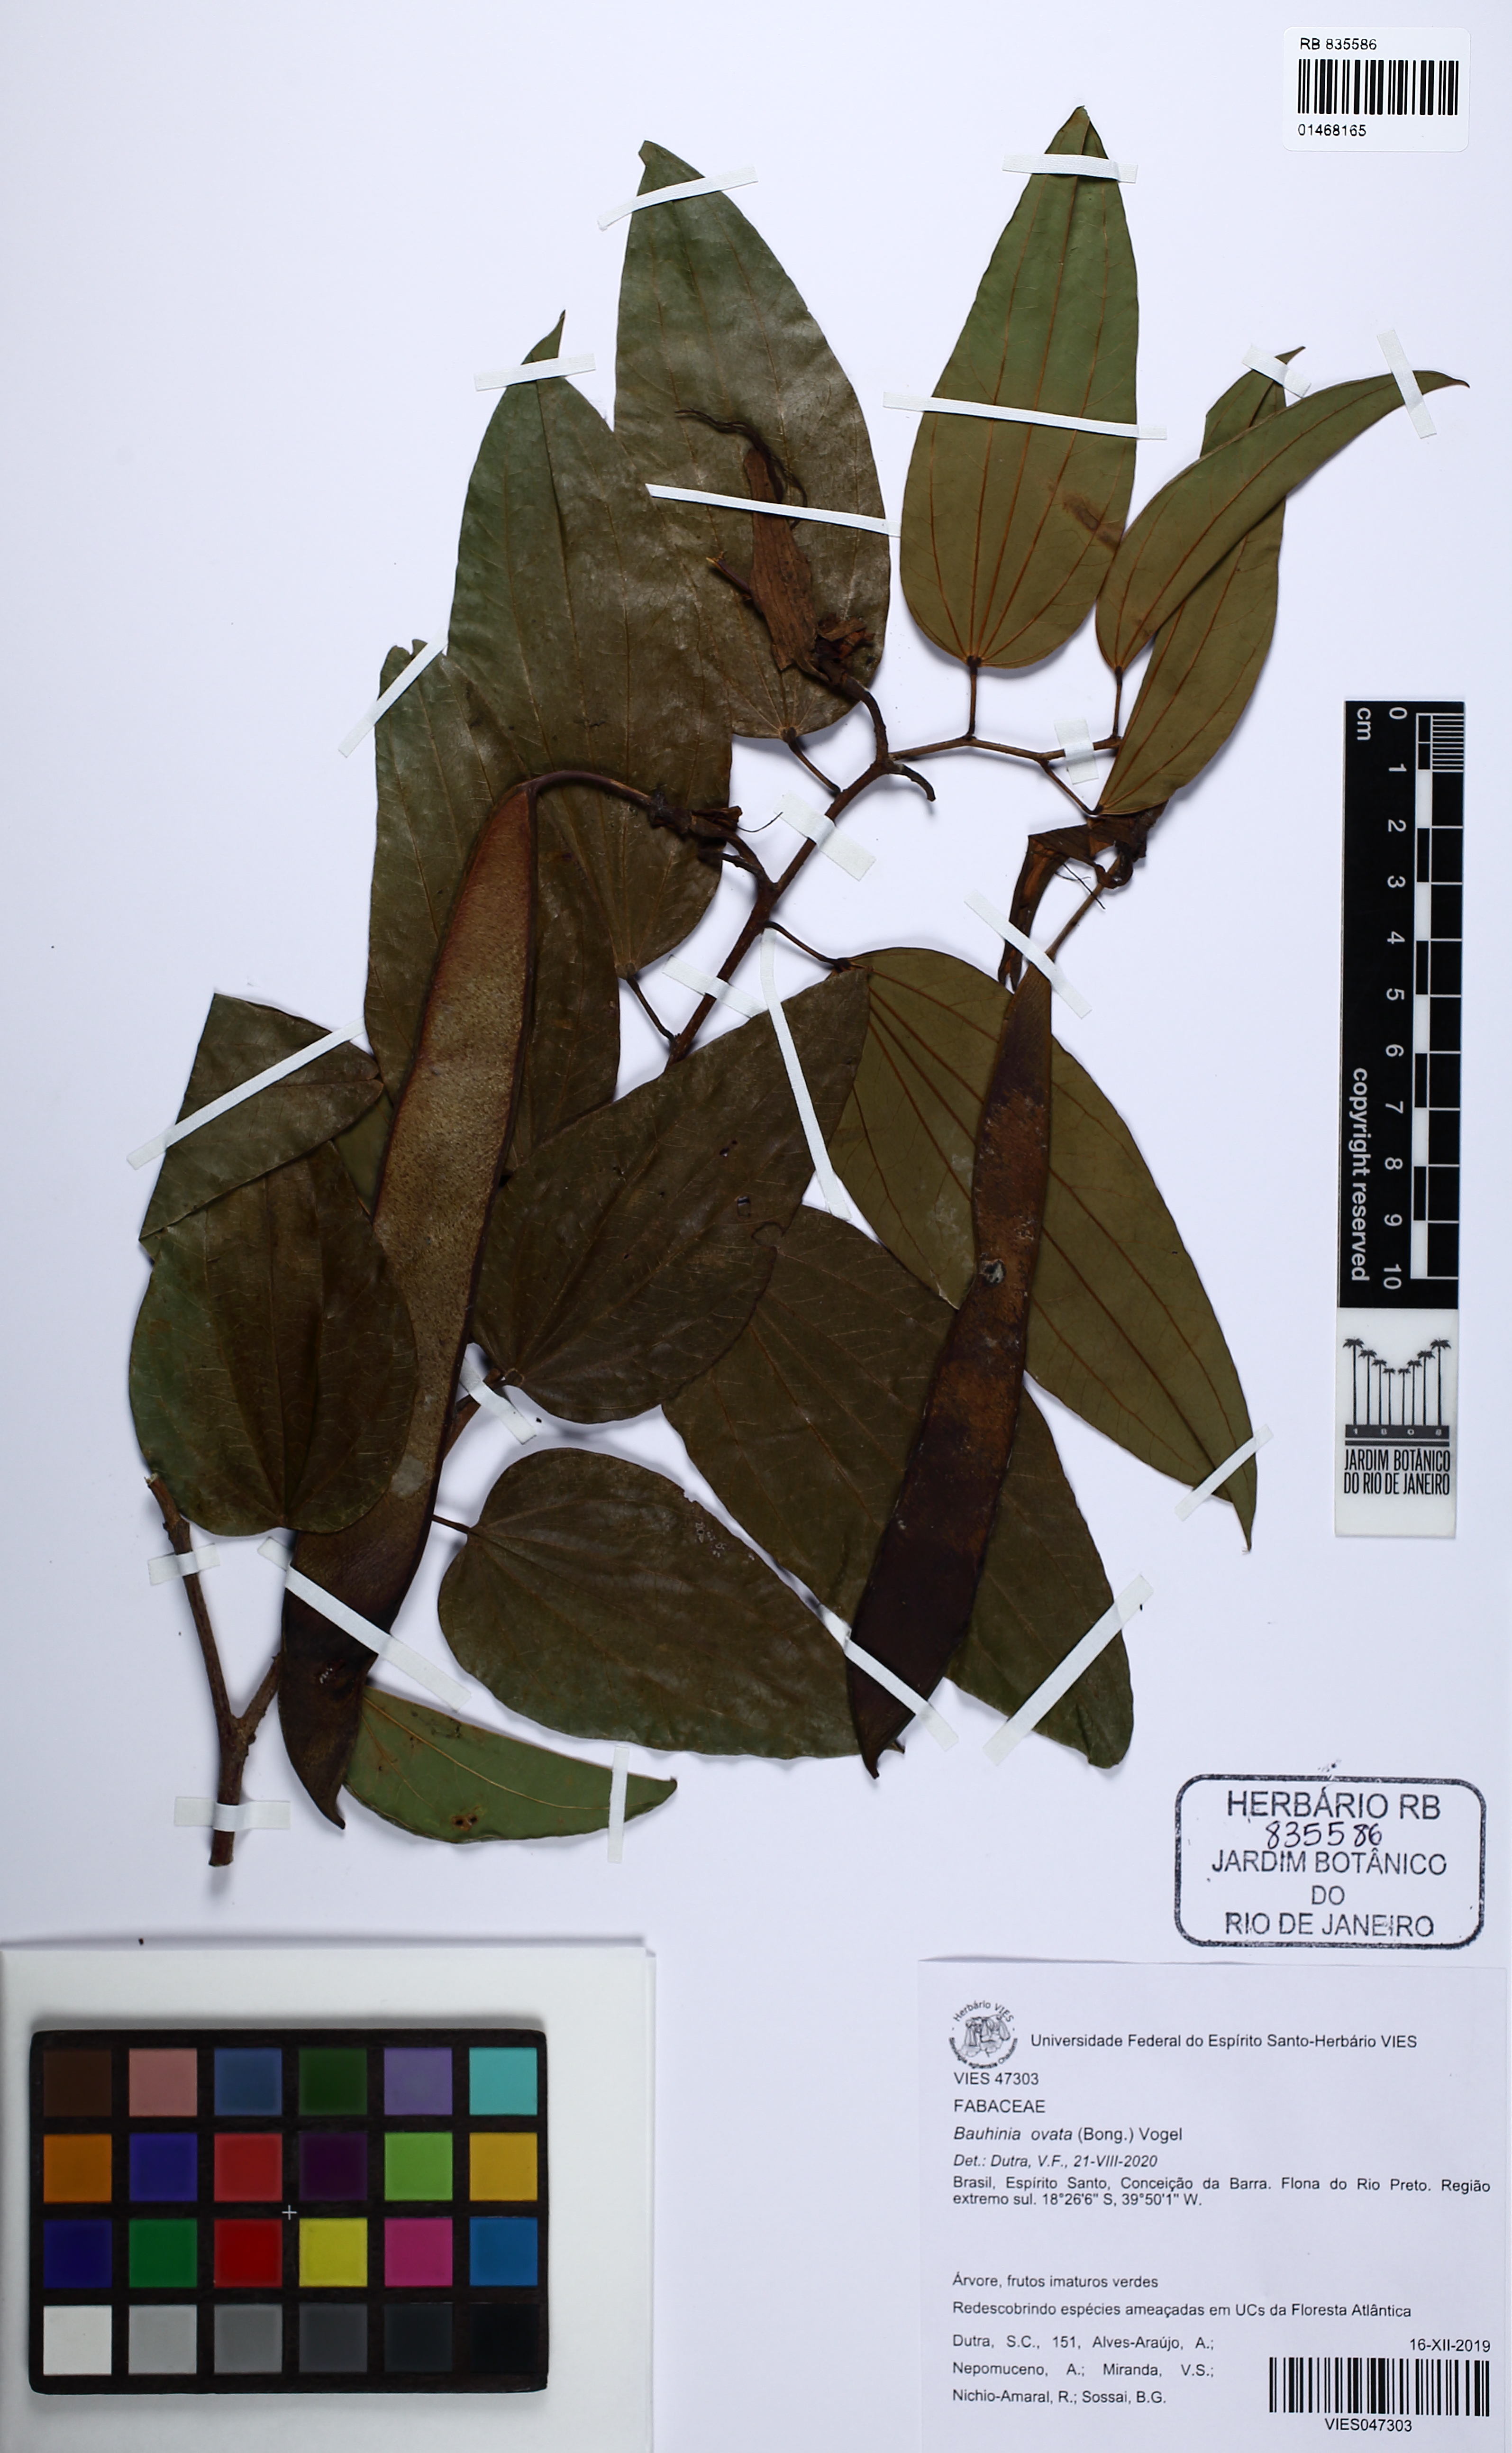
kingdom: Plantae
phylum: Tracheophyta
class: Magnoliopsida
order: Fabales
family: Fabaceae
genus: Bauhinia
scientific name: Bauhinia ovata
